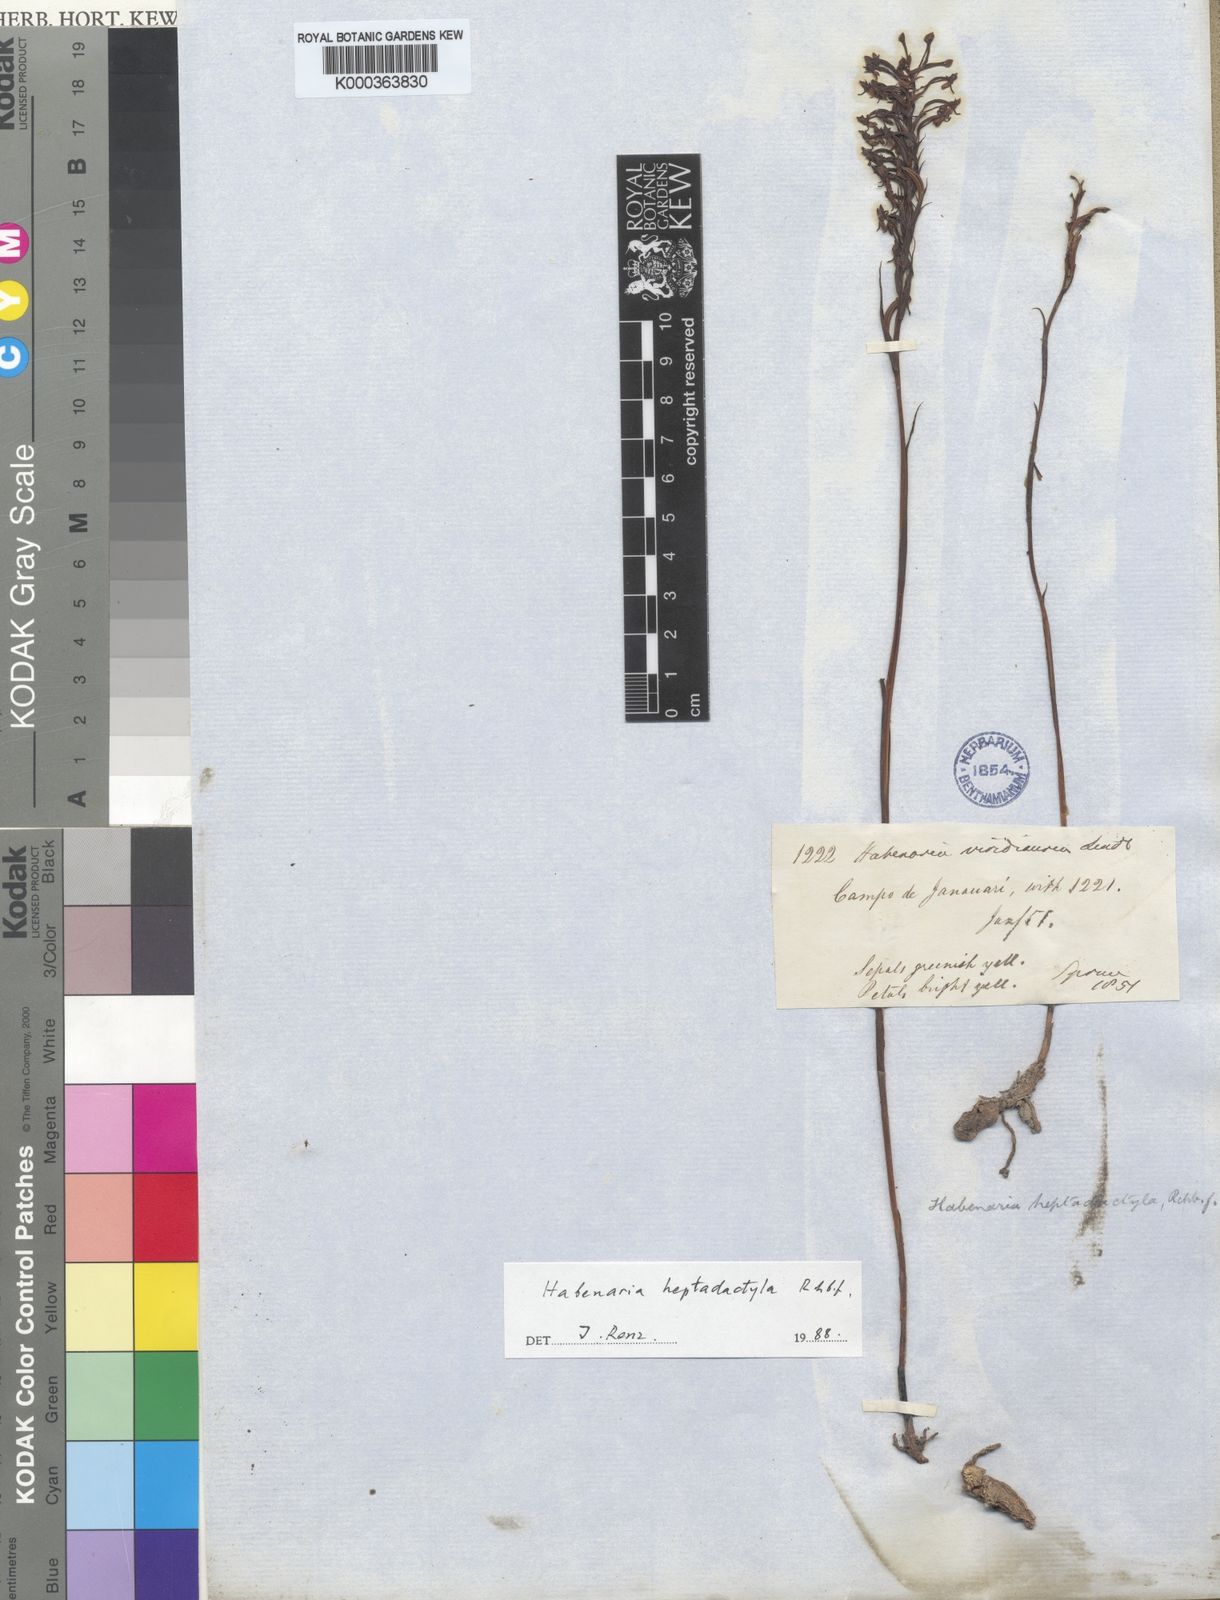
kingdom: Plantae
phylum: Tracheophyta
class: Liliopsida
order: Asparagales
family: Orchidaceae
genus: Habenaria
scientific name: Habenaria heptadactyla
